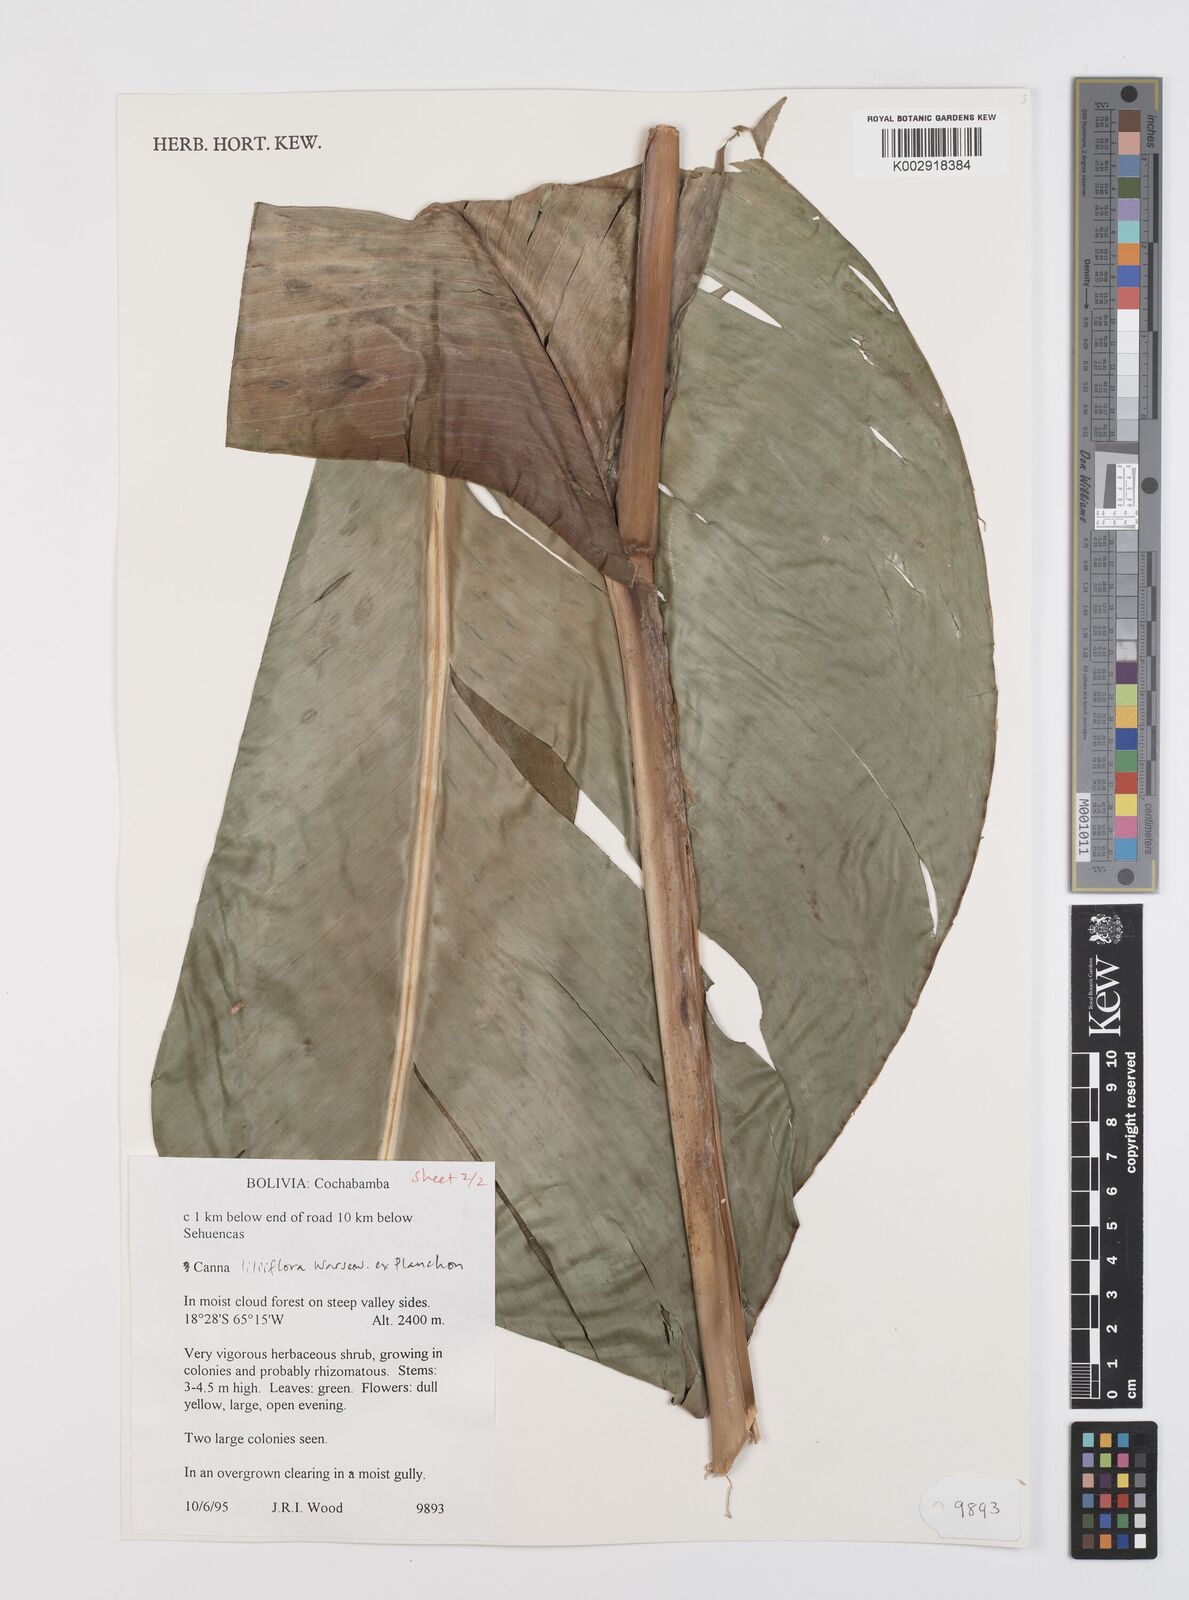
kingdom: Plantae
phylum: Tracheophyta
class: Liliopsida
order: Zingiberales
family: Cannaceae
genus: Canna
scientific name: Canna liliiflora
